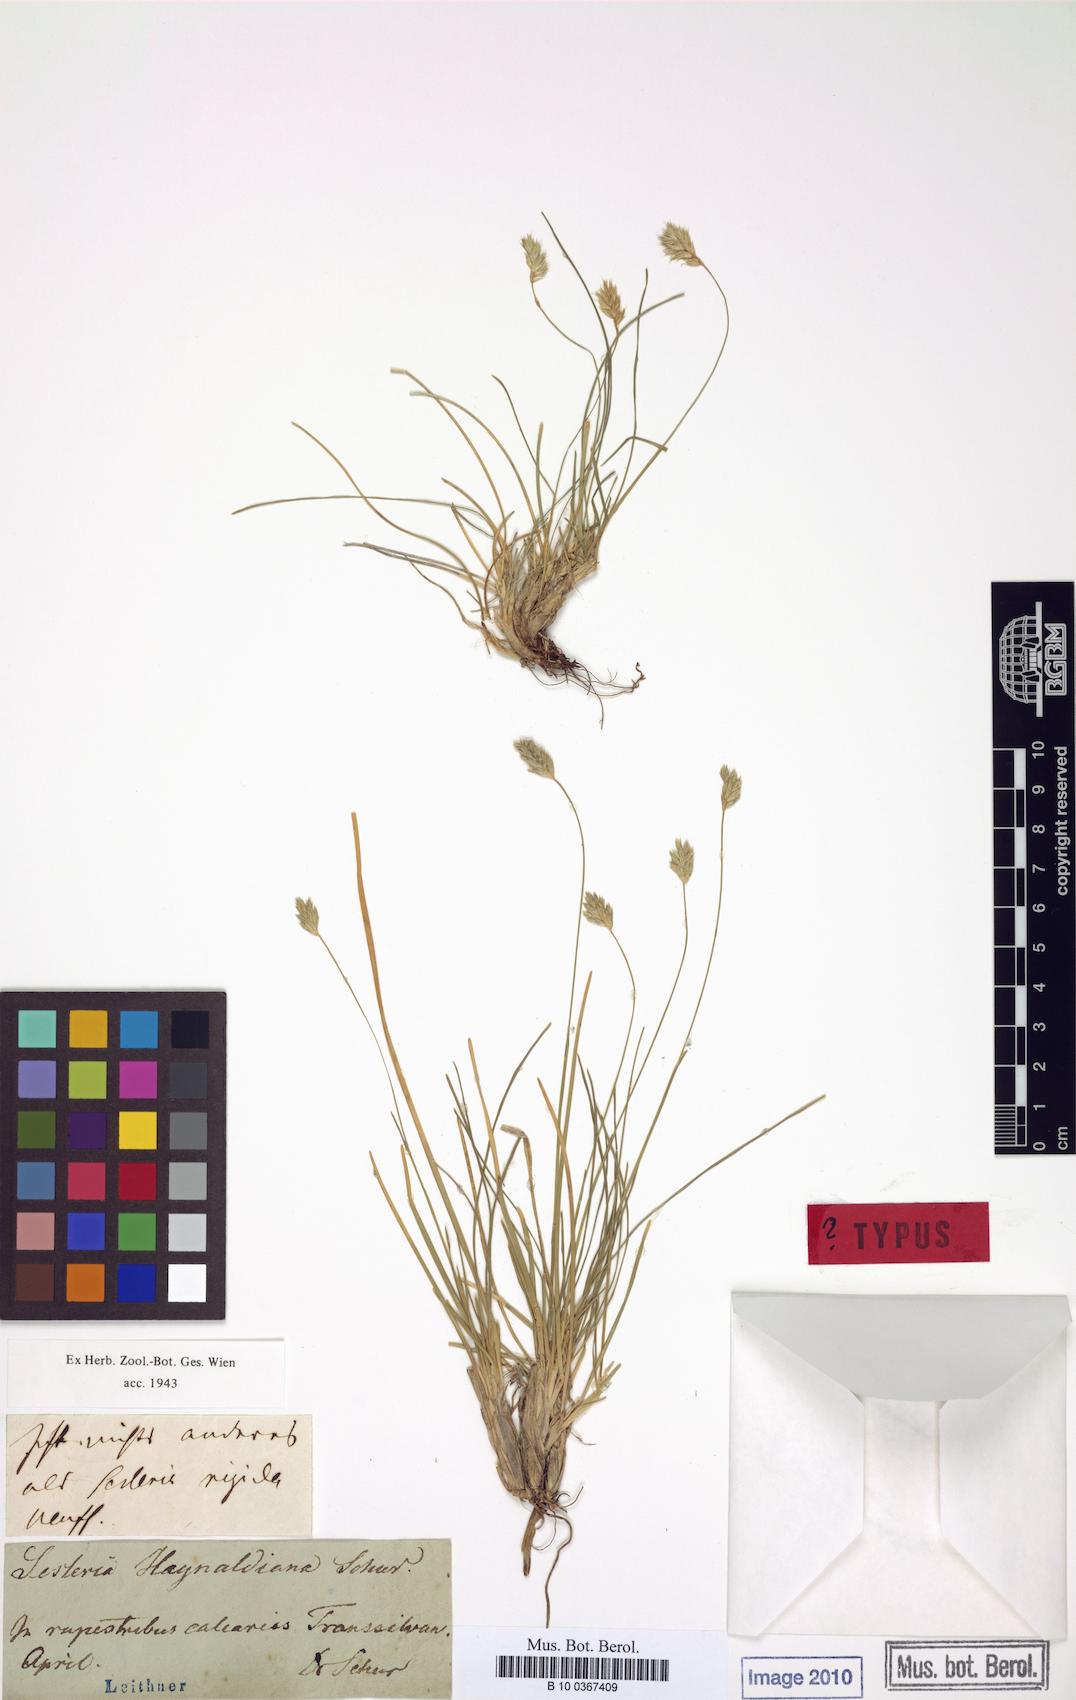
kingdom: Plantae
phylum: Tracheophyta
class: Liliopsida
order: Poales
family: Poaceae
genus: Sesleria
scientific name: Sesleria rigida
